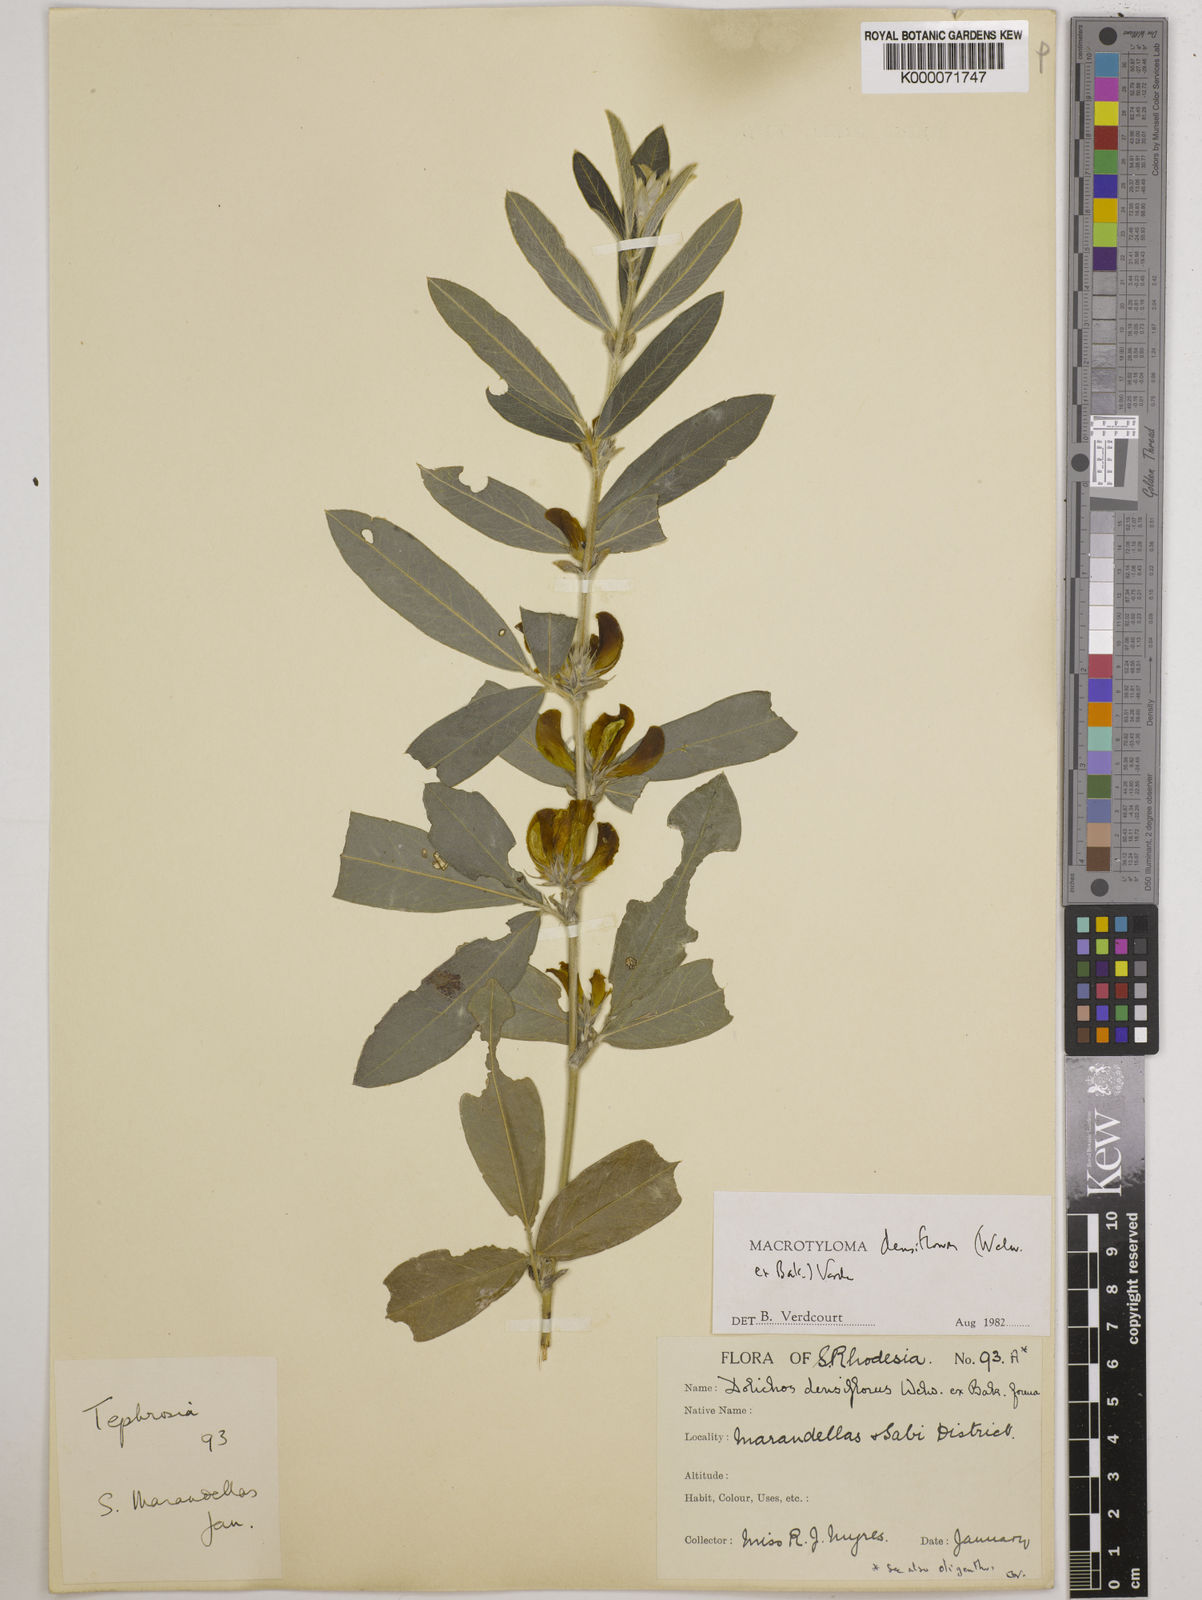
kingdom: Plantae
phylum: Tracheophyta
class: Magnoliopsida
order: Fabales
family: Fabaceae
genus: Macrotyloma
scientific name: Macrotyloma densiflorum
